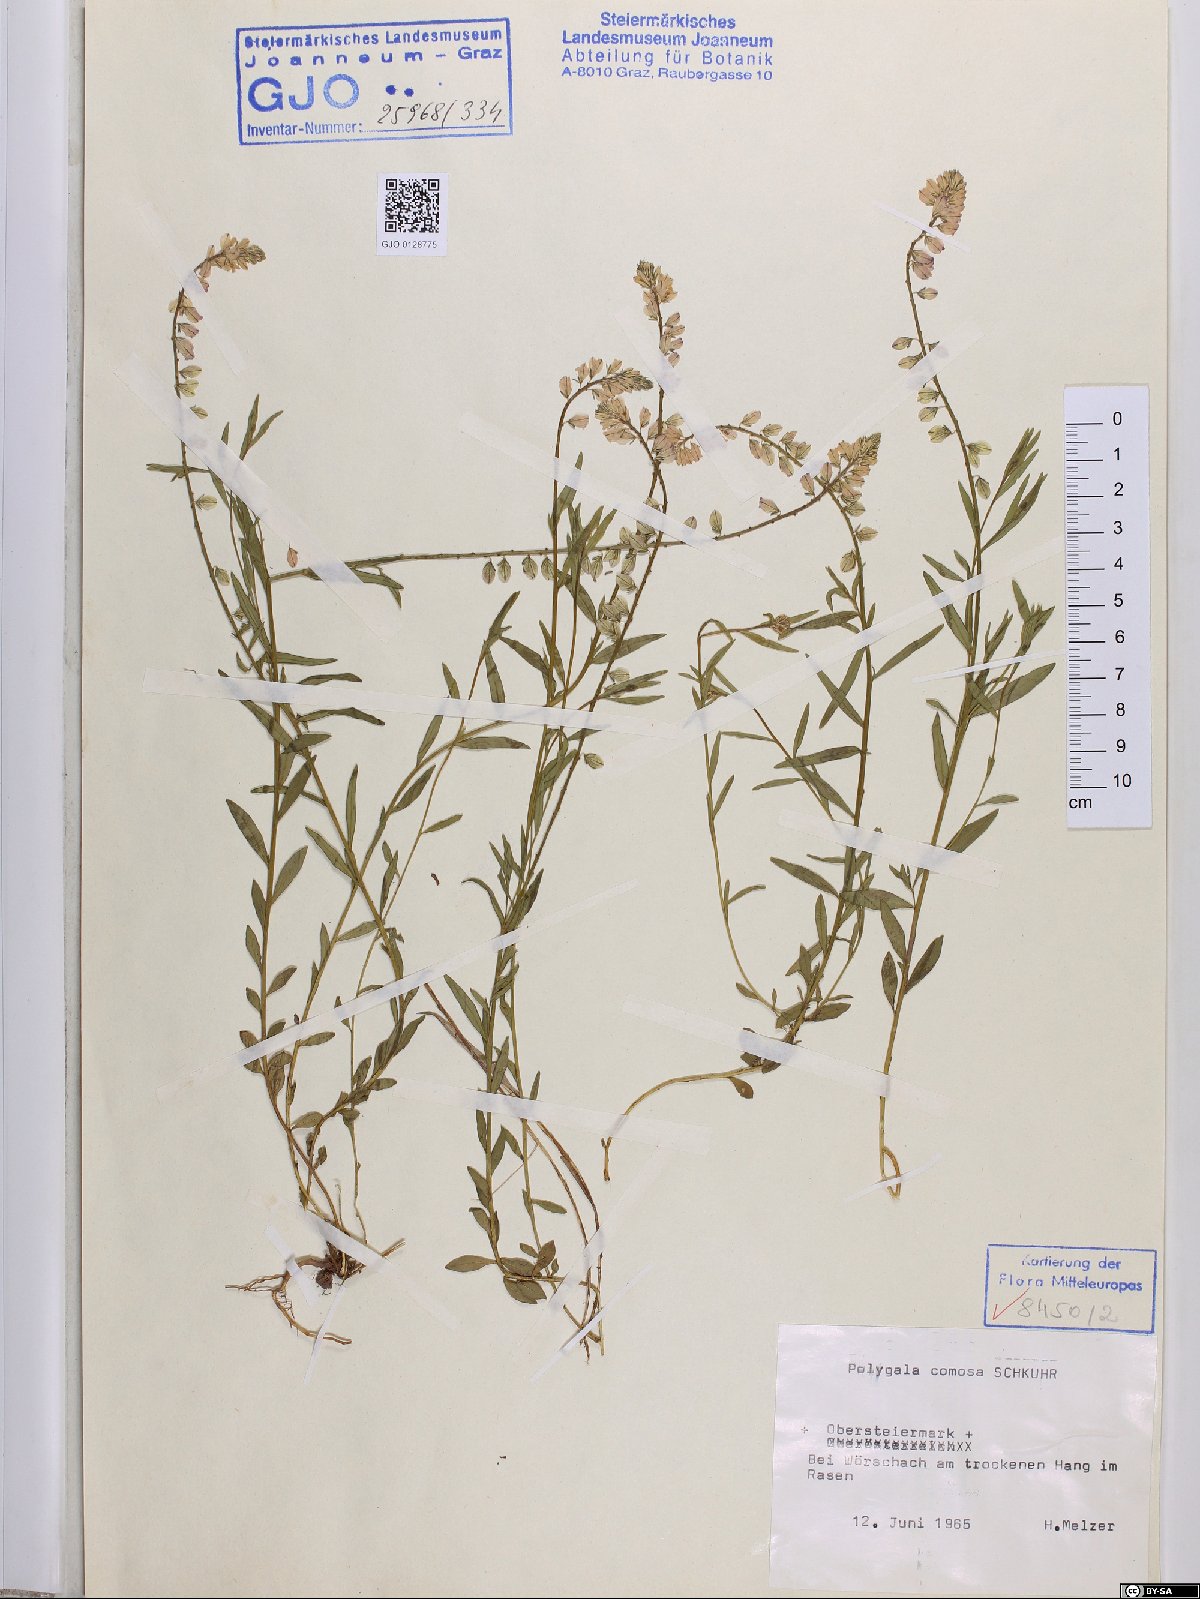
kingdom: Plantae
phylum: Tracheophyta
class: Magnoliopsida
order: Fabales
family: Polygalaceae
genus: Polygala
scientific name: Polygala comosa
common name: Tufted milkwort
